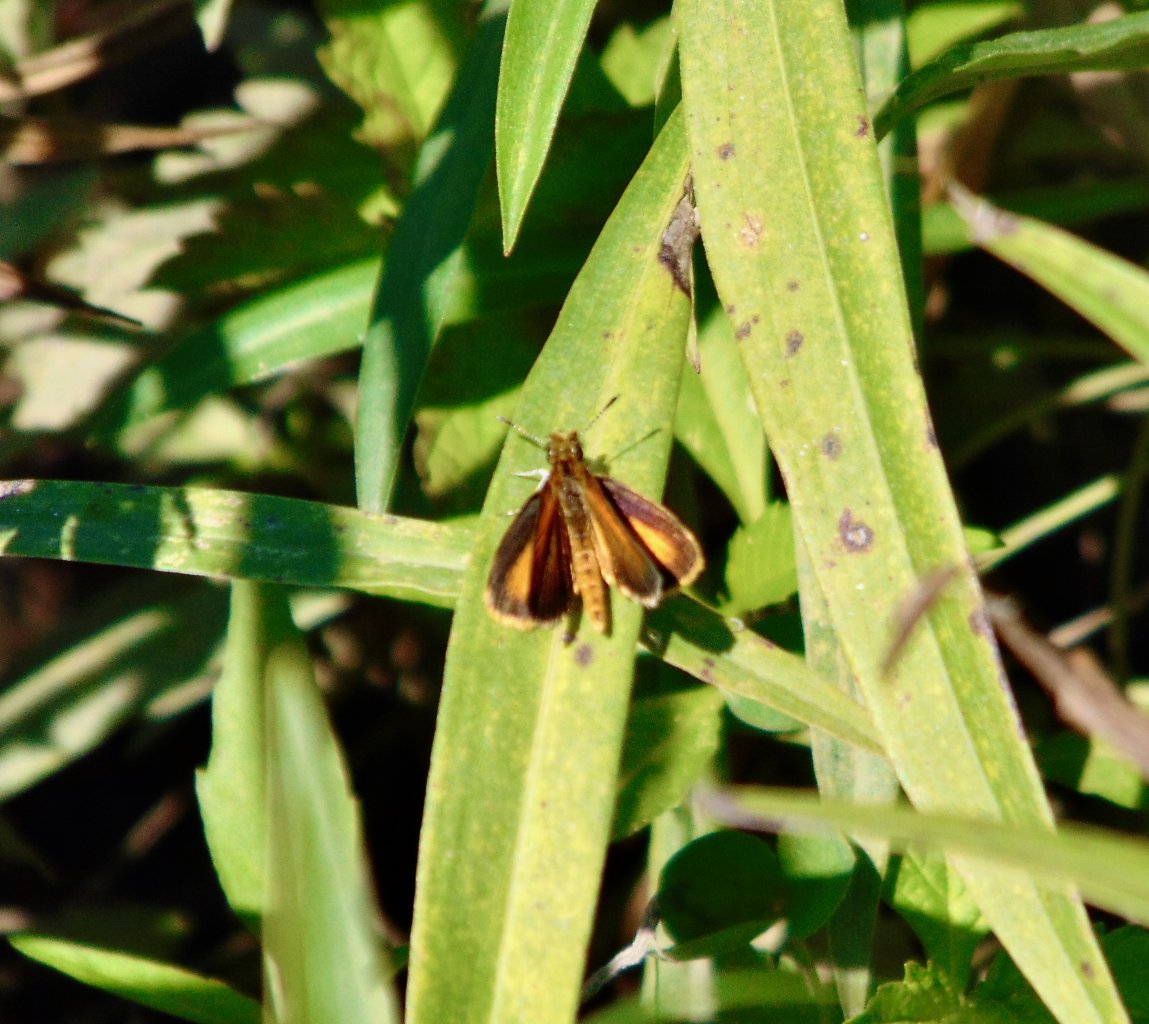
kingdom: Animalia
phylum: Arthropoda
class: Insecta
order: Lepidoptera
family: Hesperiidae
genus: Ancyloxypha
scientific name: Ancyloxypha numitor
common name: Least Skipper
